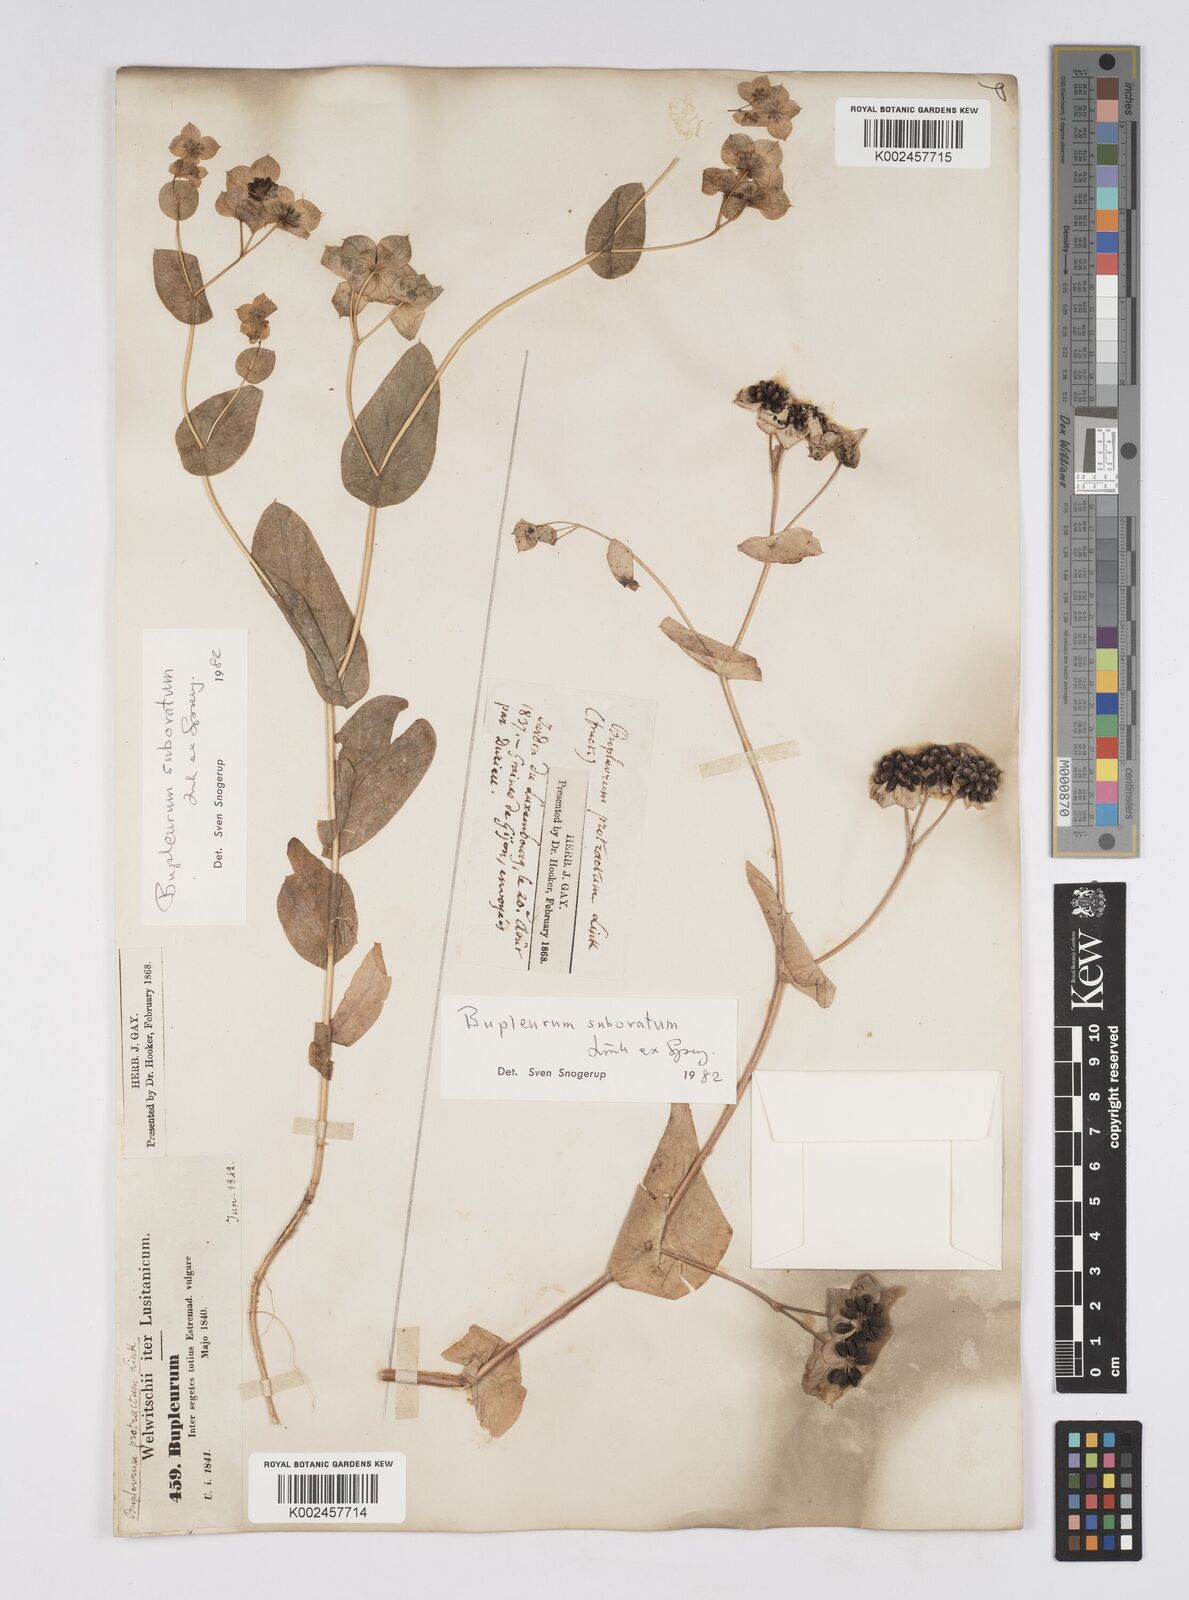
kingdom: Plantae
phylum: Tracheophyta
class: Magnoliopsida
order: Apiales
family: Apiaceae
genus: Bupleurum
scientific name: Bupleurum lancifolium
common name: False thorow-wax
